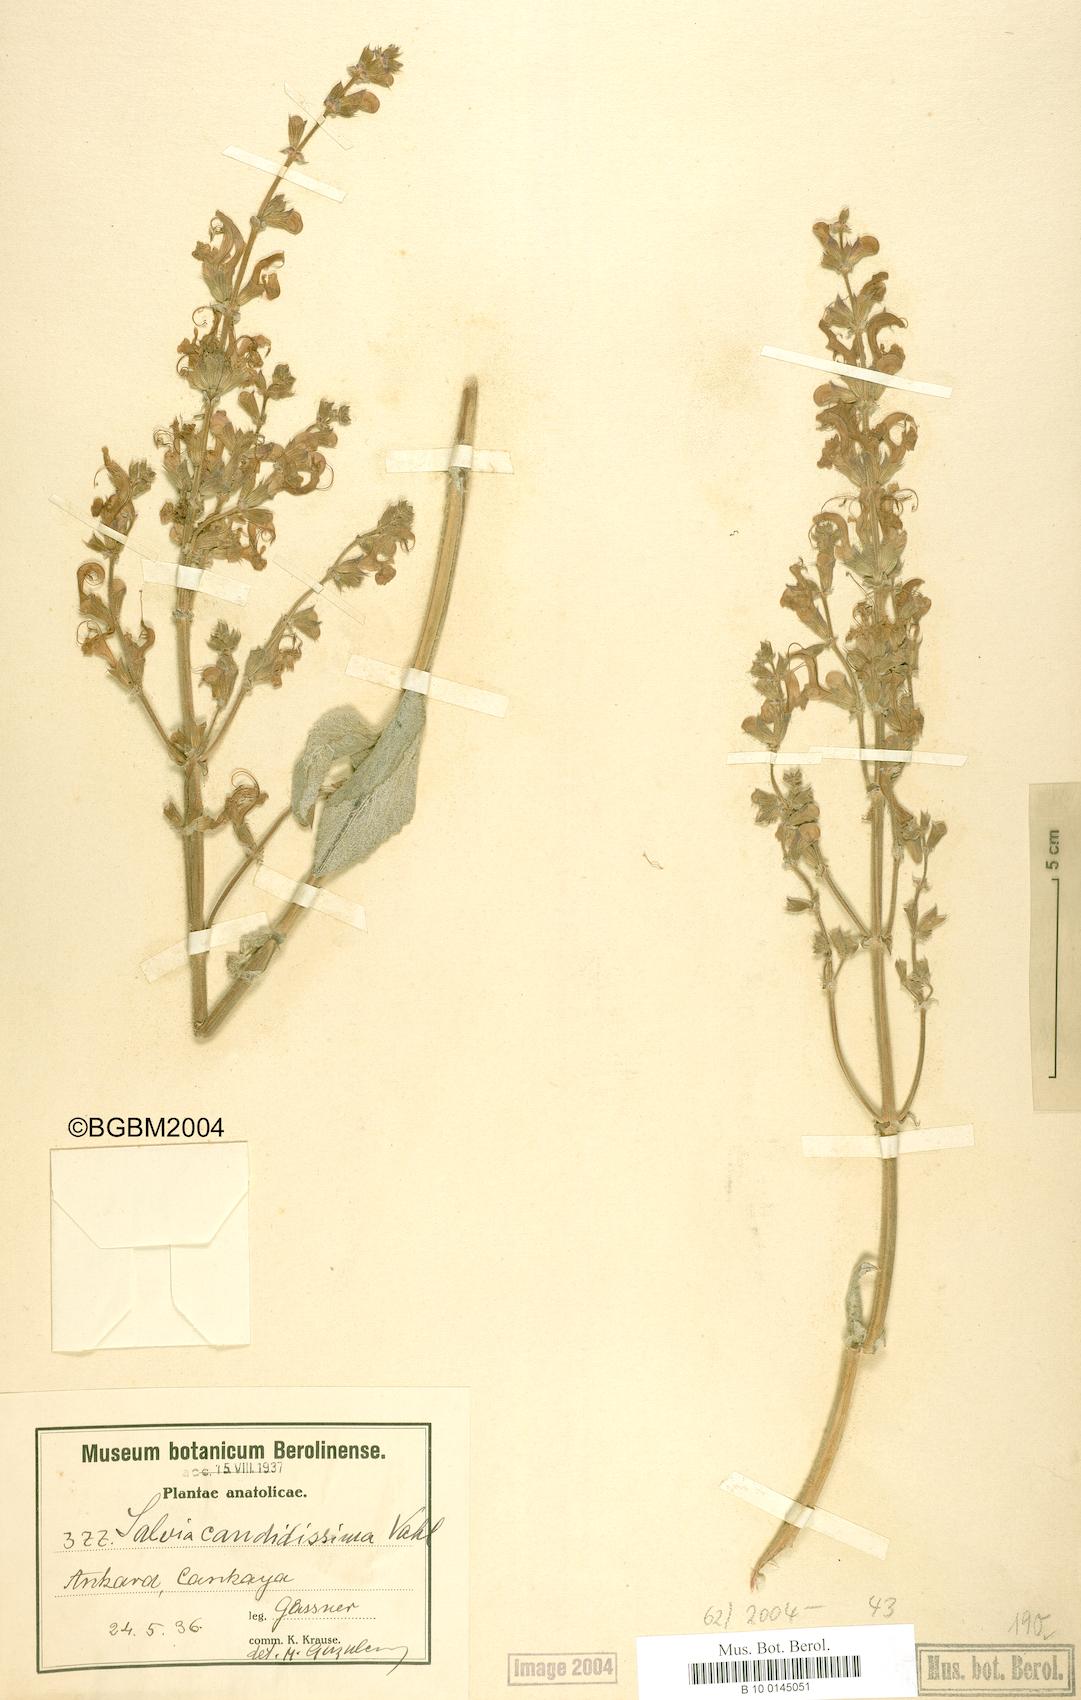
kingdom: Plantae
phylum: Tracheophyta
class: Magnoliopsida
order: Lamiales
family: Lamiaceae
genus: Salvia
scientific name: Salvia candidissima
